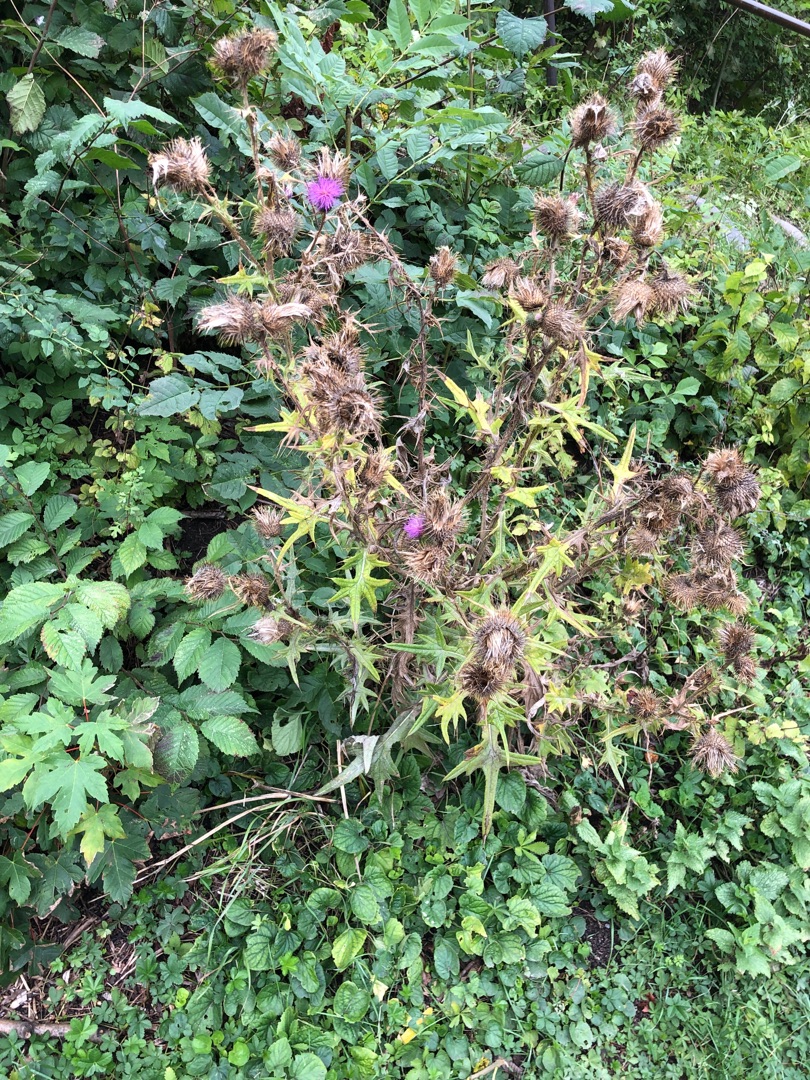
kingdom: Plantae
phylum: Tracheophyta
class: Magnoliopsida
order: Asterales
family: Asteraceae
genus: Cirsium
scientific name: Cirsium vulgare
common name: Horse-tidsel
